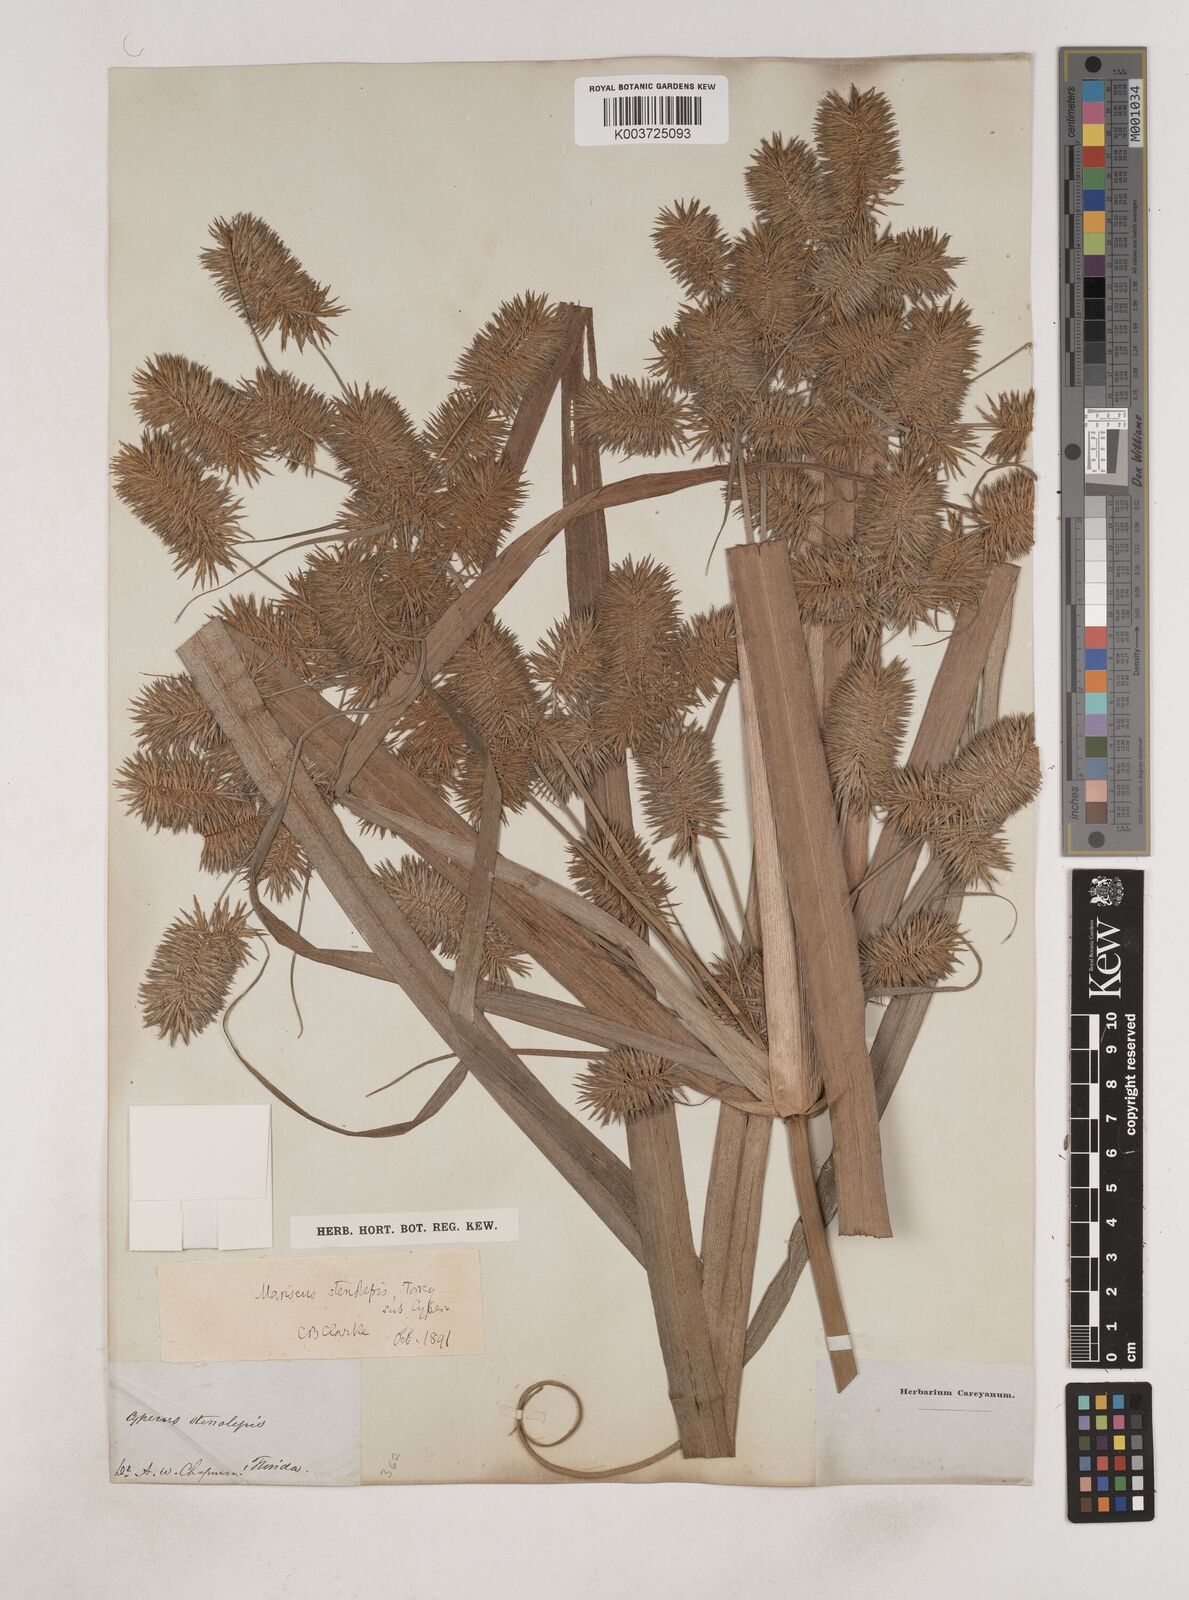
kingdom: Plantae
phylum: Tracheophyta
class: Liliopsida
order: Poales
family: Cyperaceae
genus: Cyperus
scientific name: Cyperus strigosus
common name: False nutsedge
